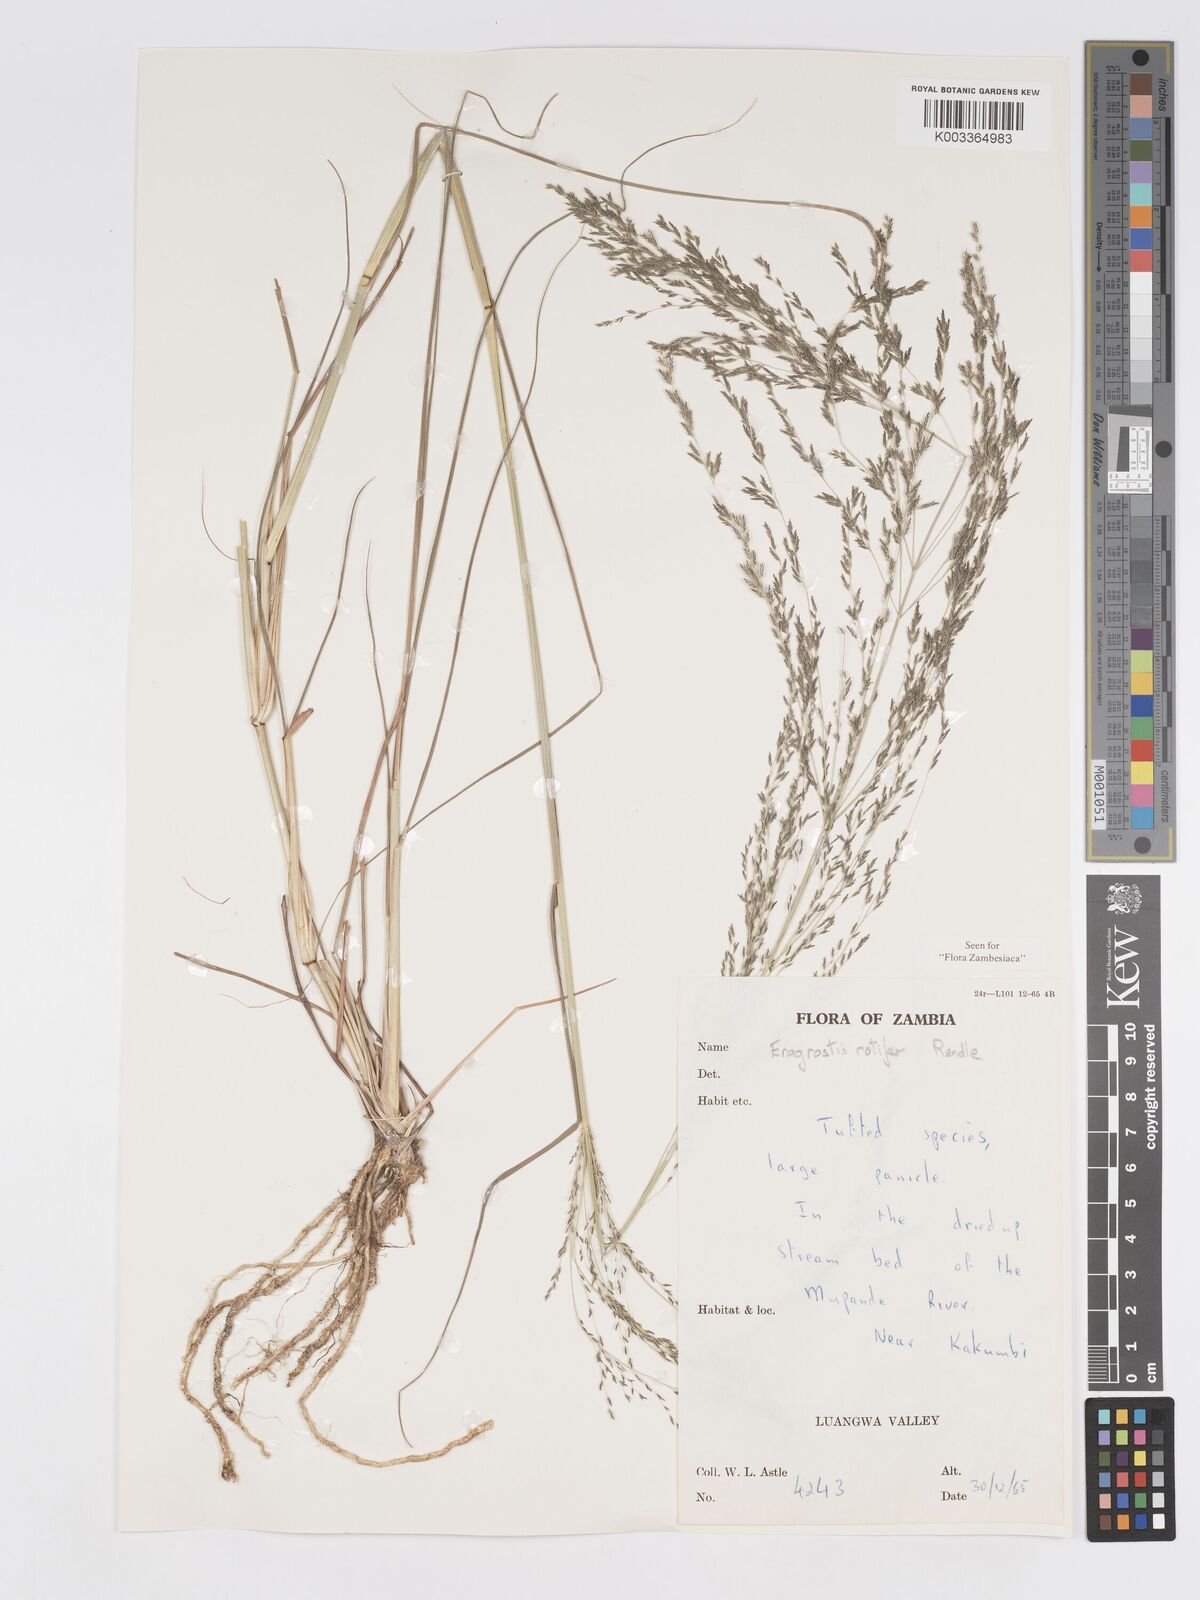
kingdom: Plantae
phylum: Tracheophyta
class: Liliopsida
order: Poales
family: Poaceae
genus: Eragrostis
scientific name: Eragrostis rotifer
